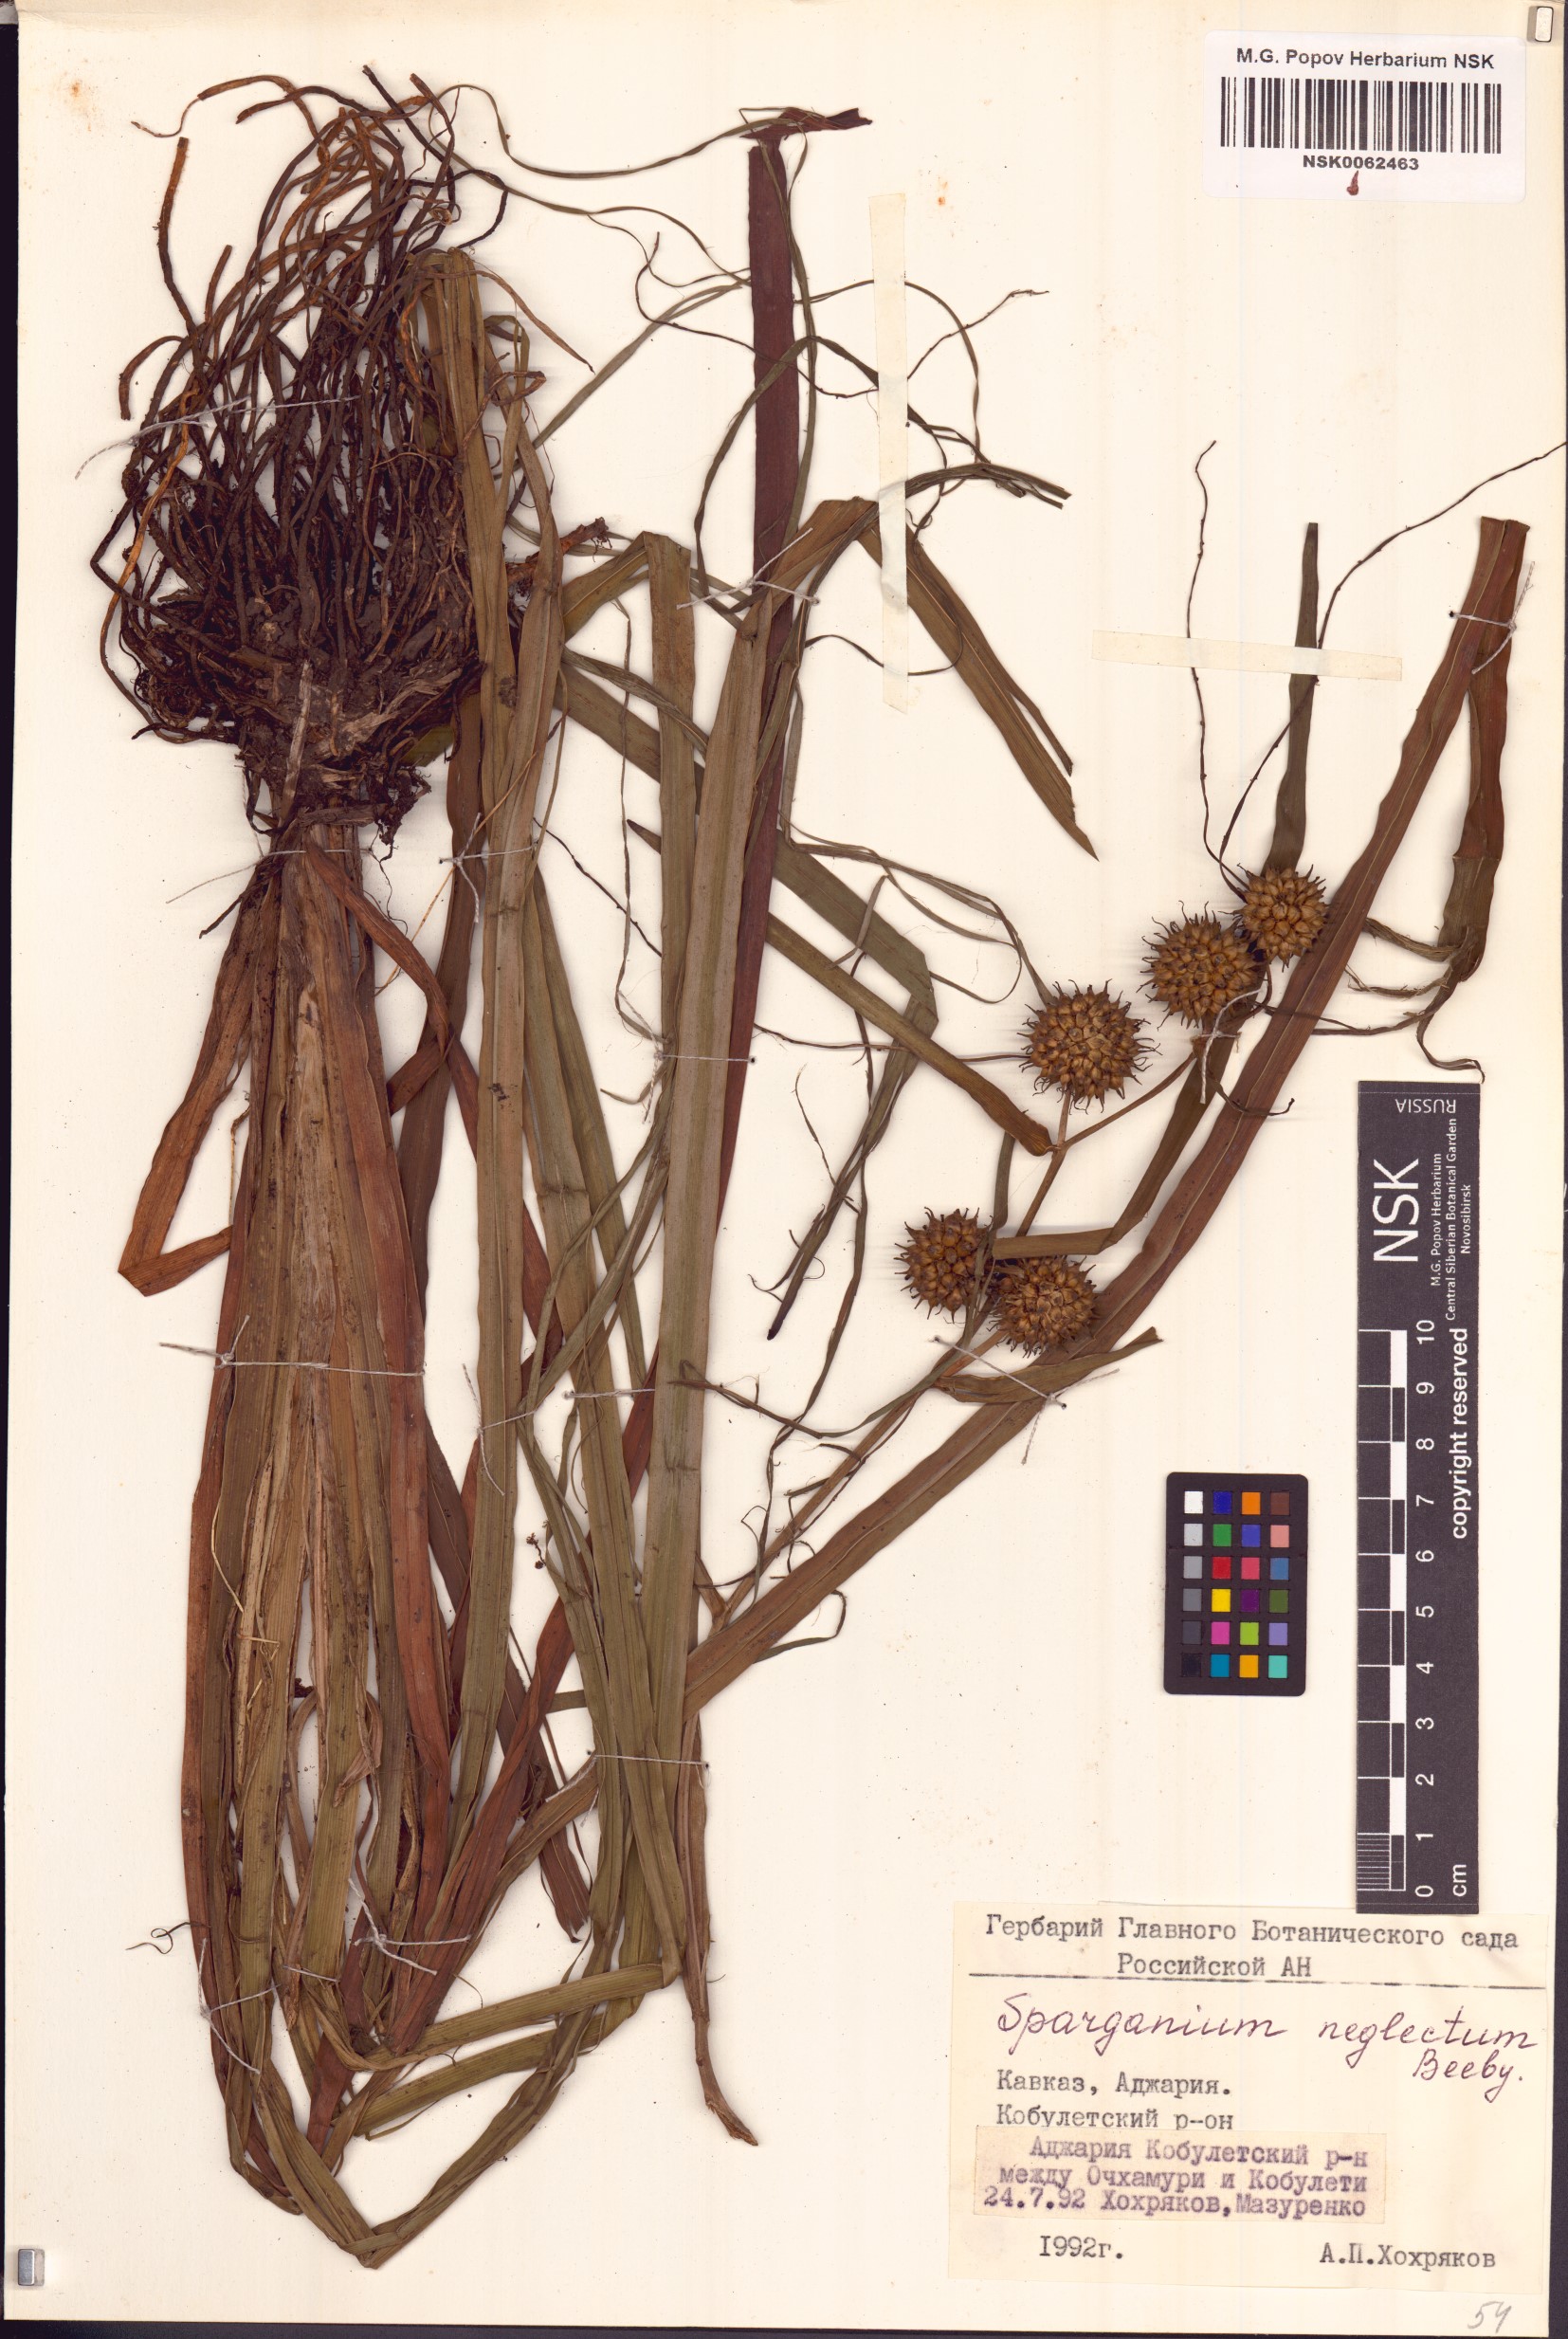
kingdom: Plantae
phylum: Tracheophyta
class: Liliopsida
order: Poales
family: Typhaceae
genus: Sparganium
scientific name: Sparganium erectum
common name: Branched bur-reed
